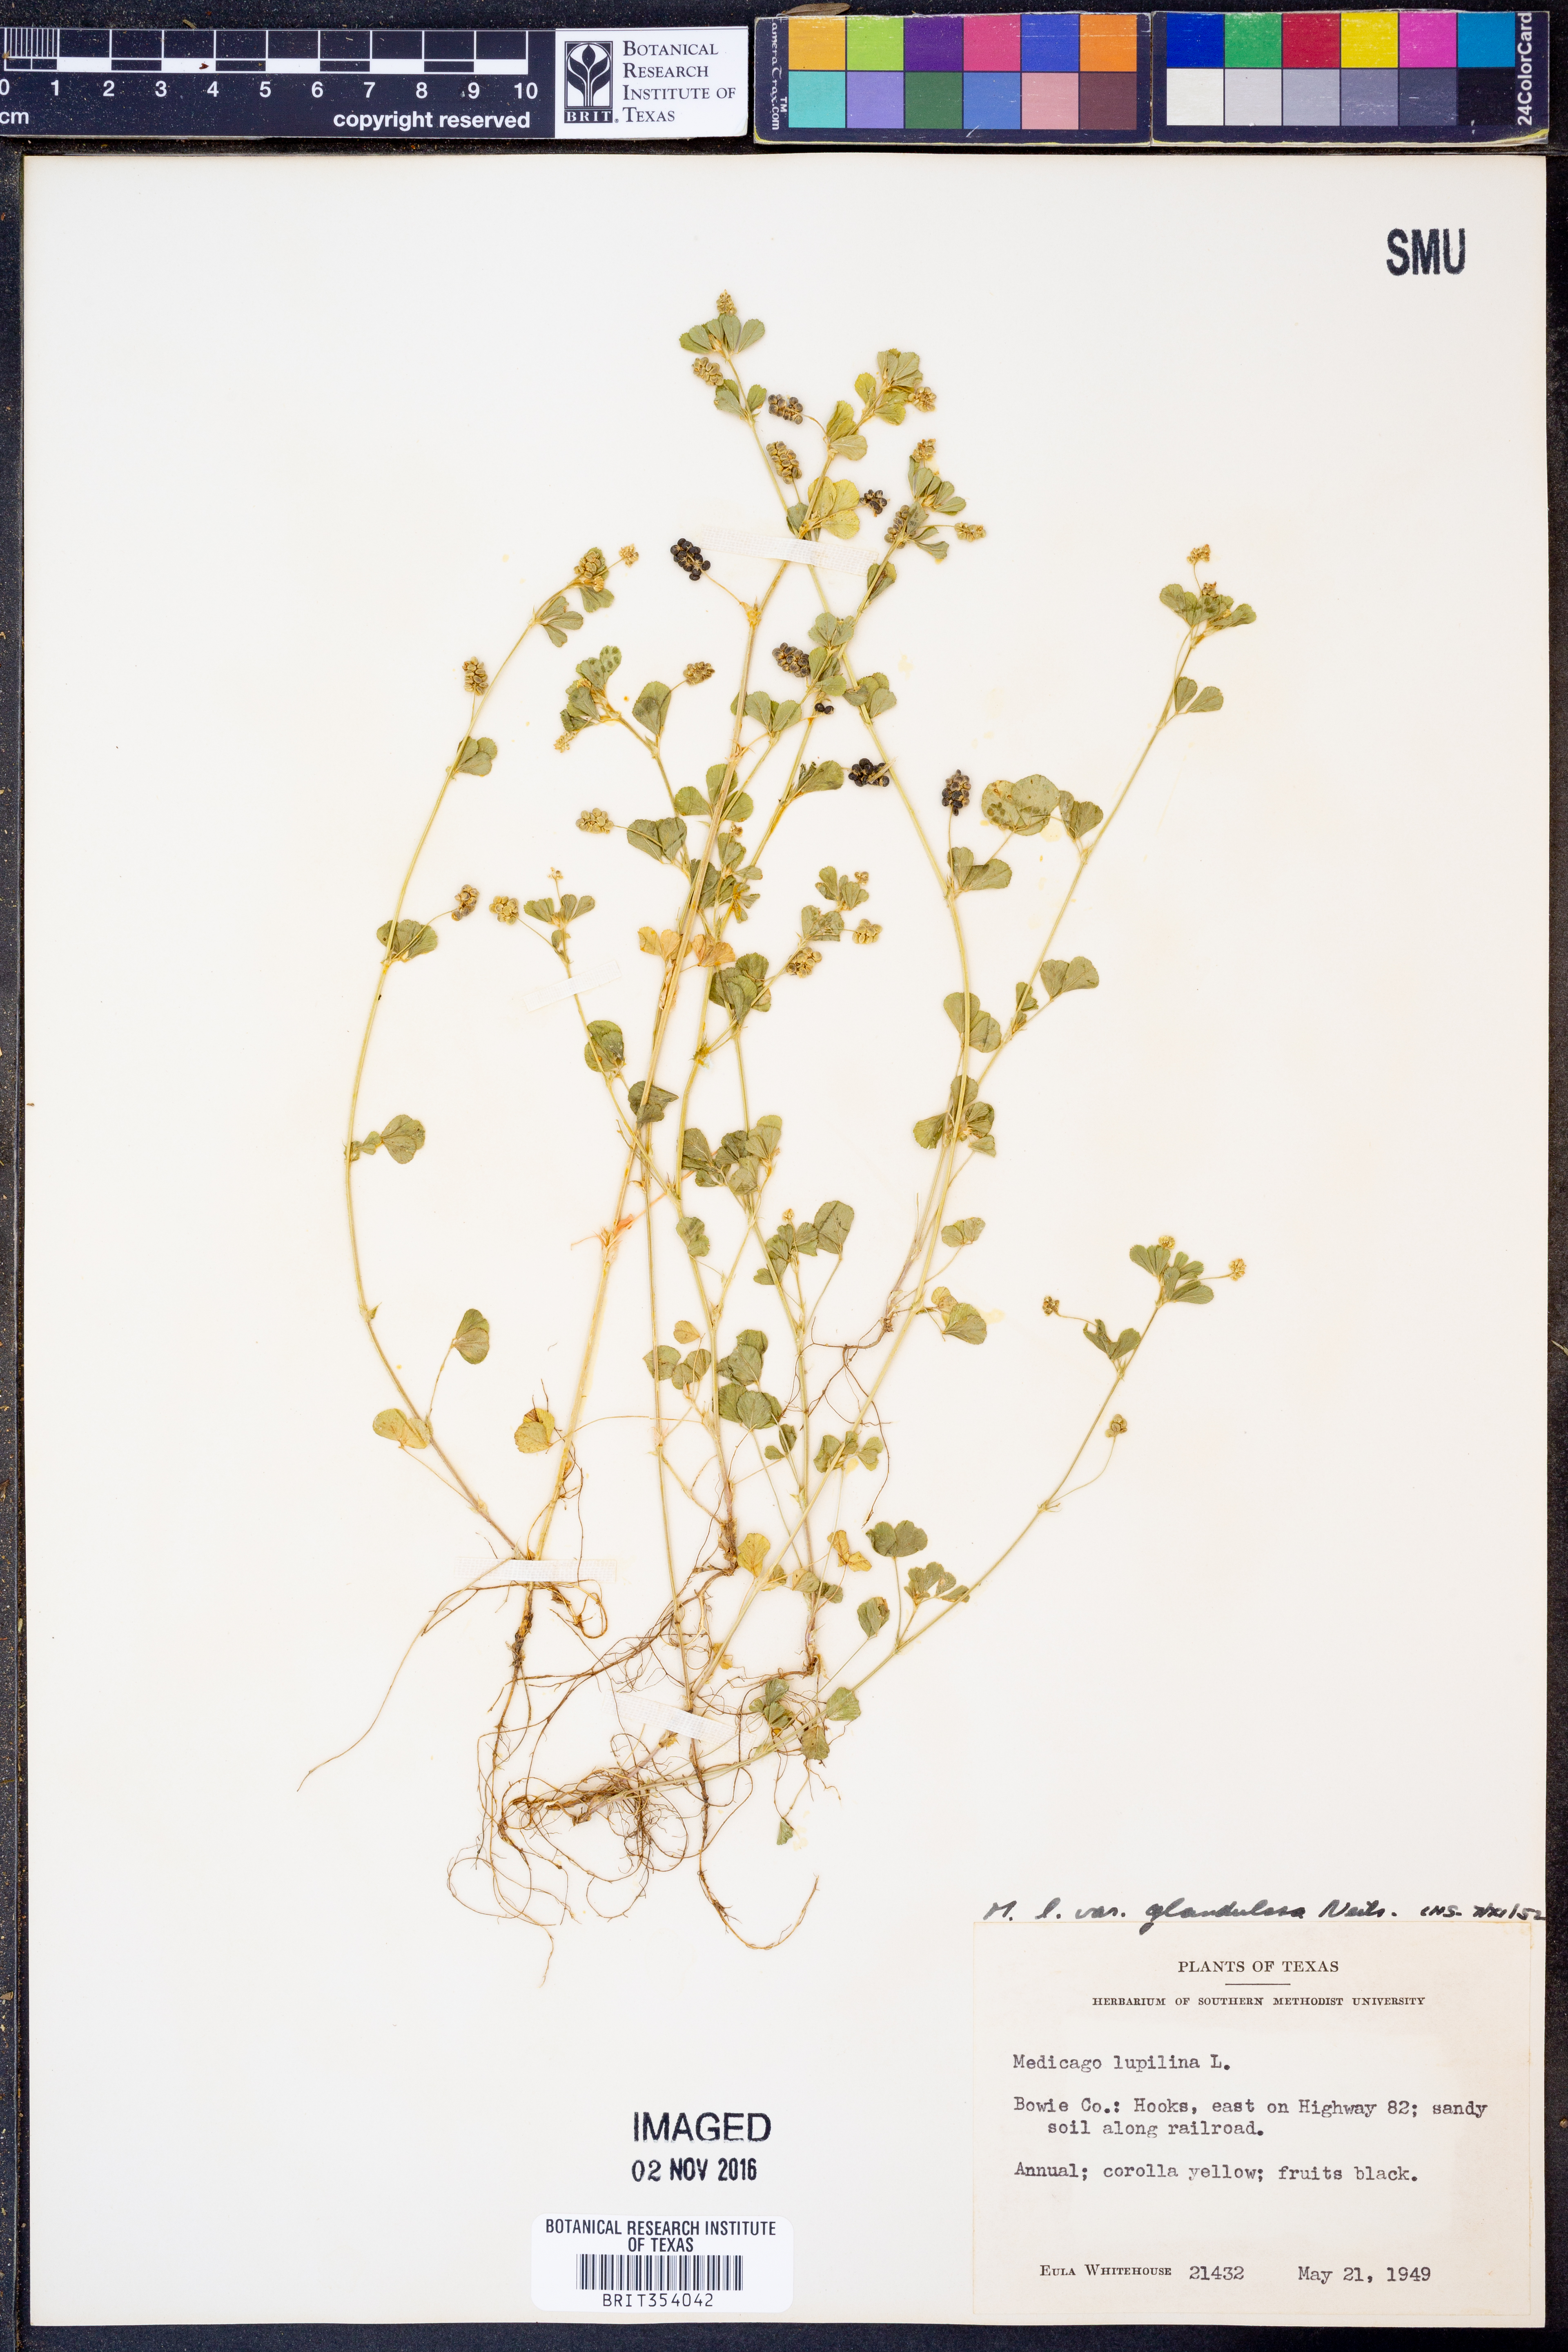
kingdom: Plantae
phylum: Tracheophyta
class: Magnoliopsida
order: Fabales
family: Fabaceae
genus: Medicago
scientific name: Medicago lupulina
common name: Black medick
